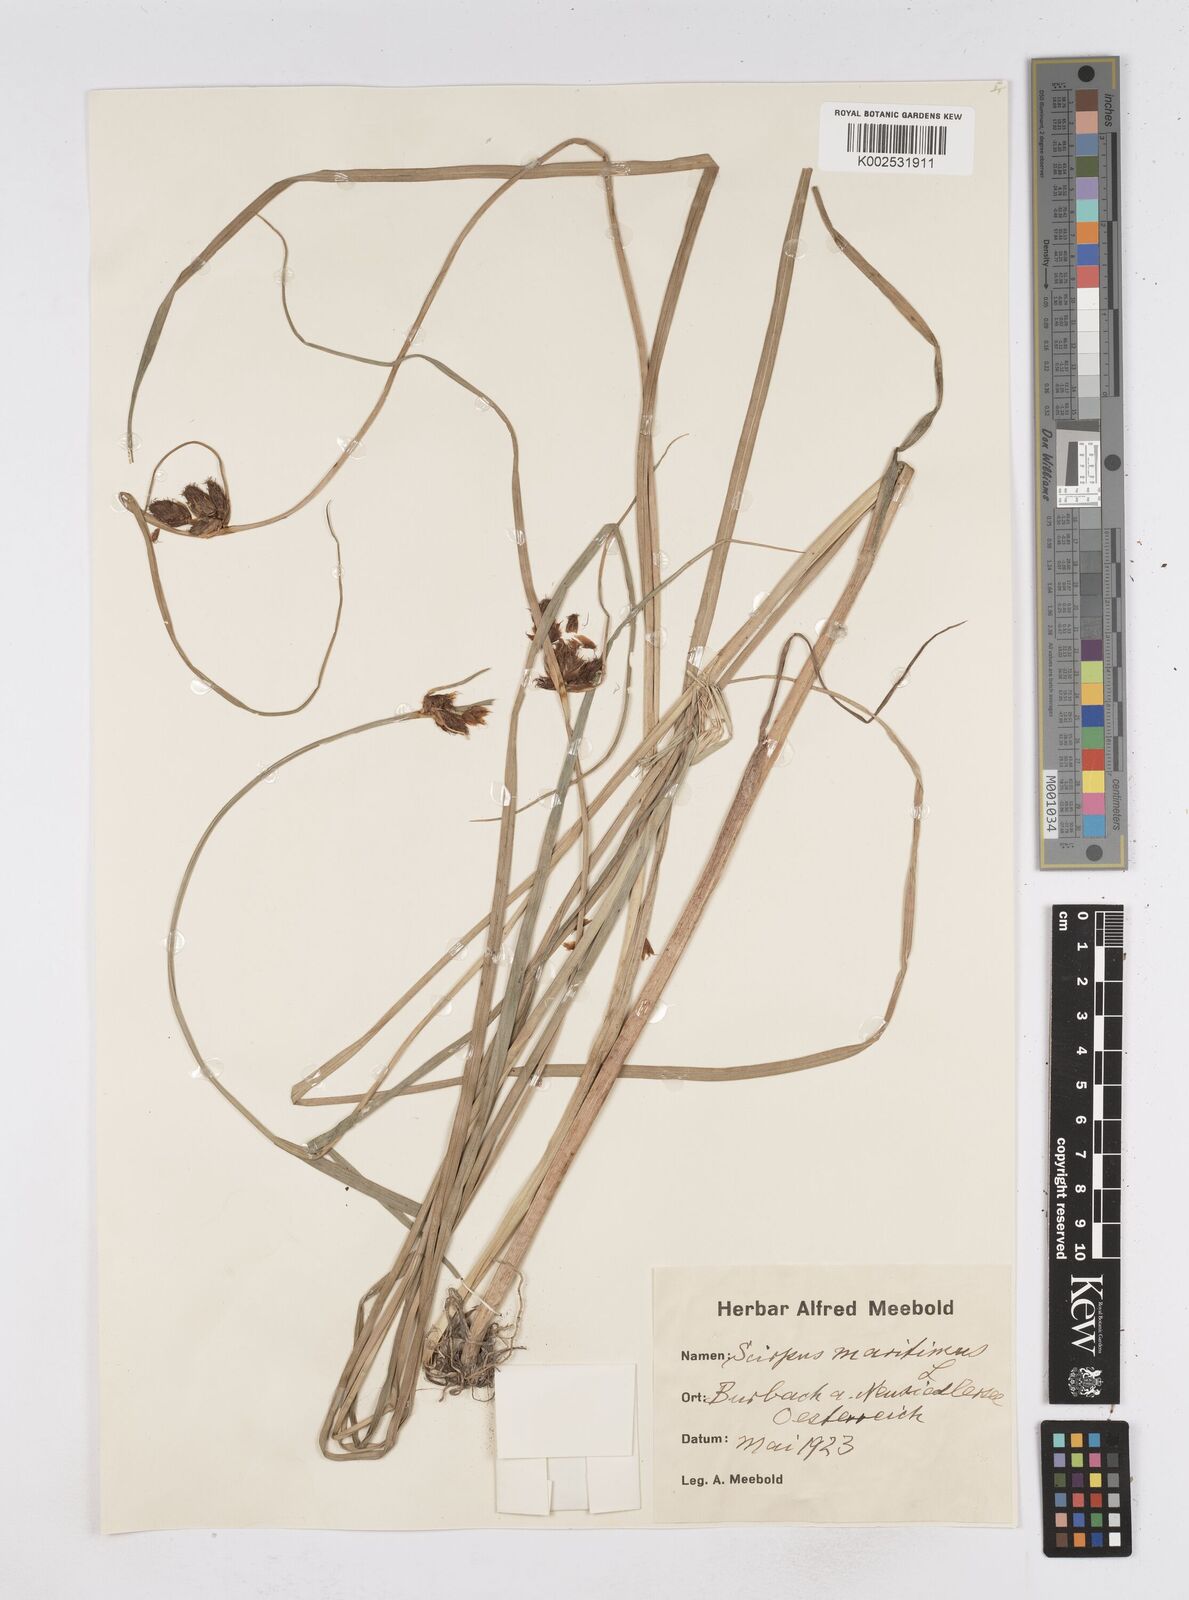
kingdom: Plantae
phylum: Tracheophyta
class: Liliopsida
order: Poales
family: Cyperaceae
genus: Bolboschoenus
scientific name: Bolboschoenus maritimus
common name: Sea club-rush
